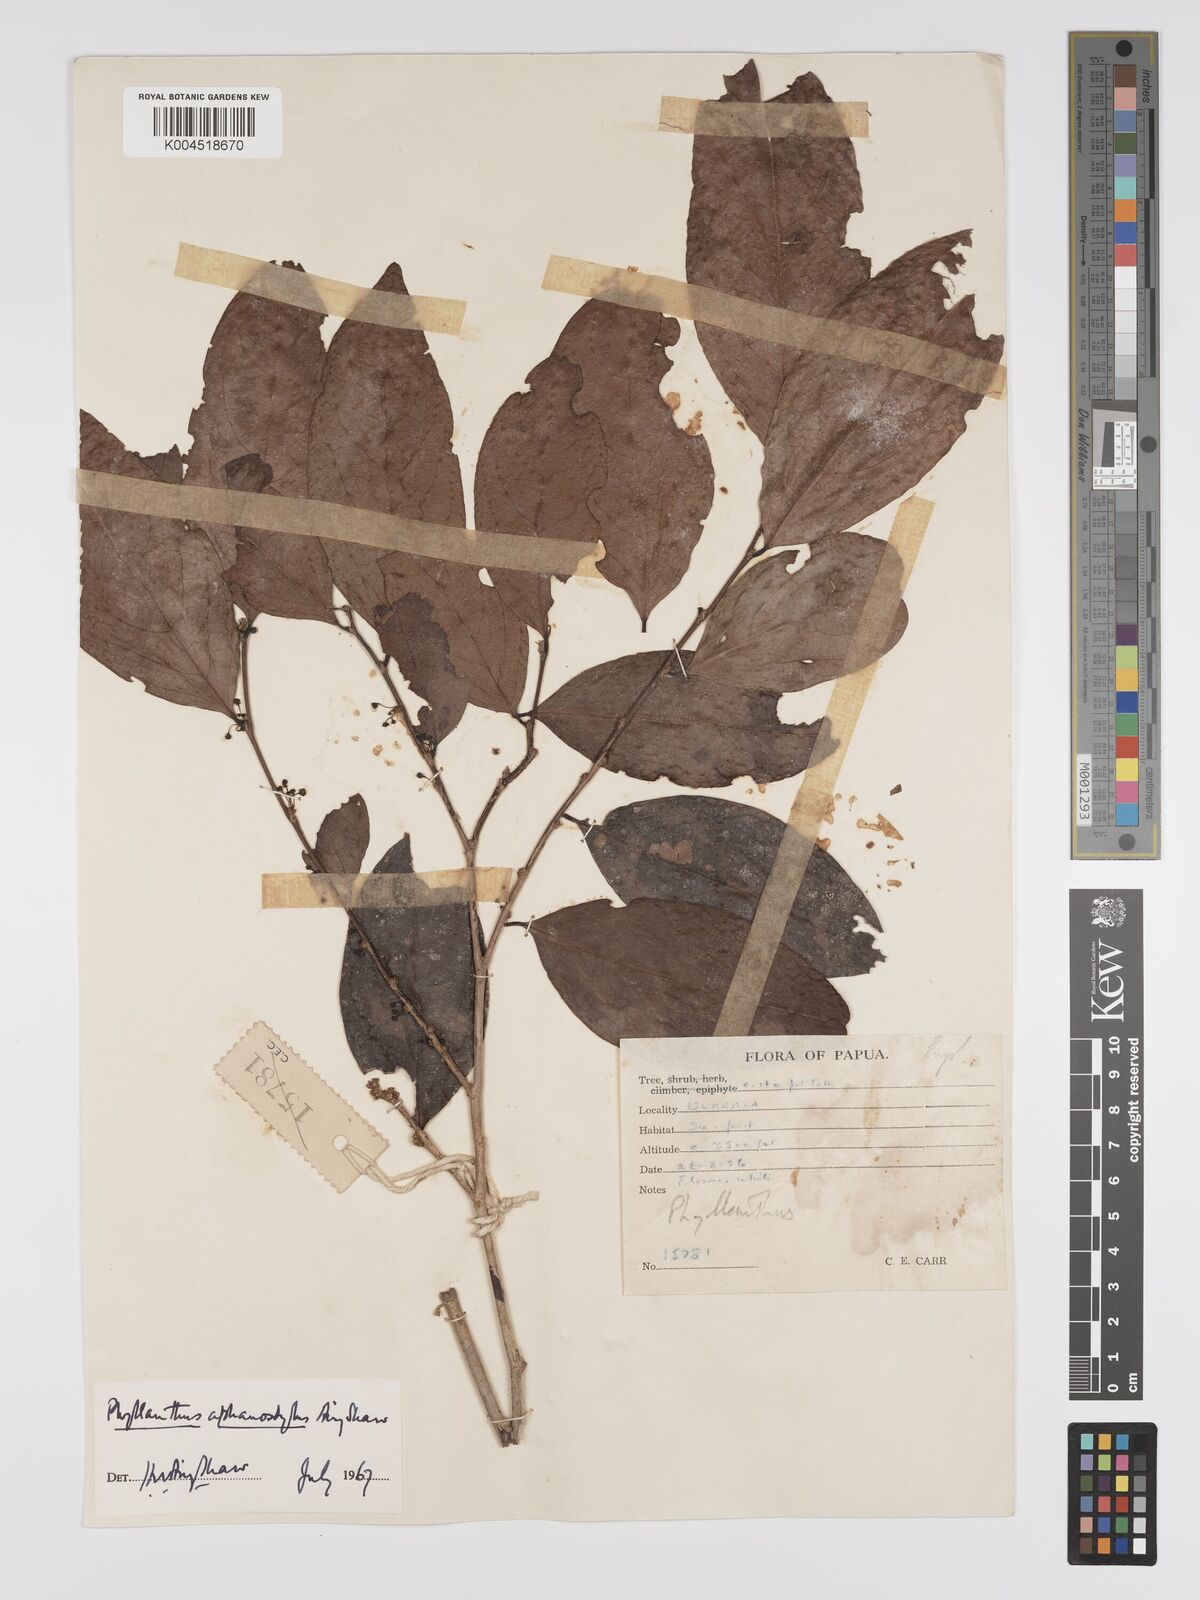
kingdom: Plantae
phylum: Tracheophyta
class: Magnoliopsida
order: Malpighiales
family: Phyllanthaceae
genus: Phyllanthus
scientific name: Phyllanthus aphanostylus
